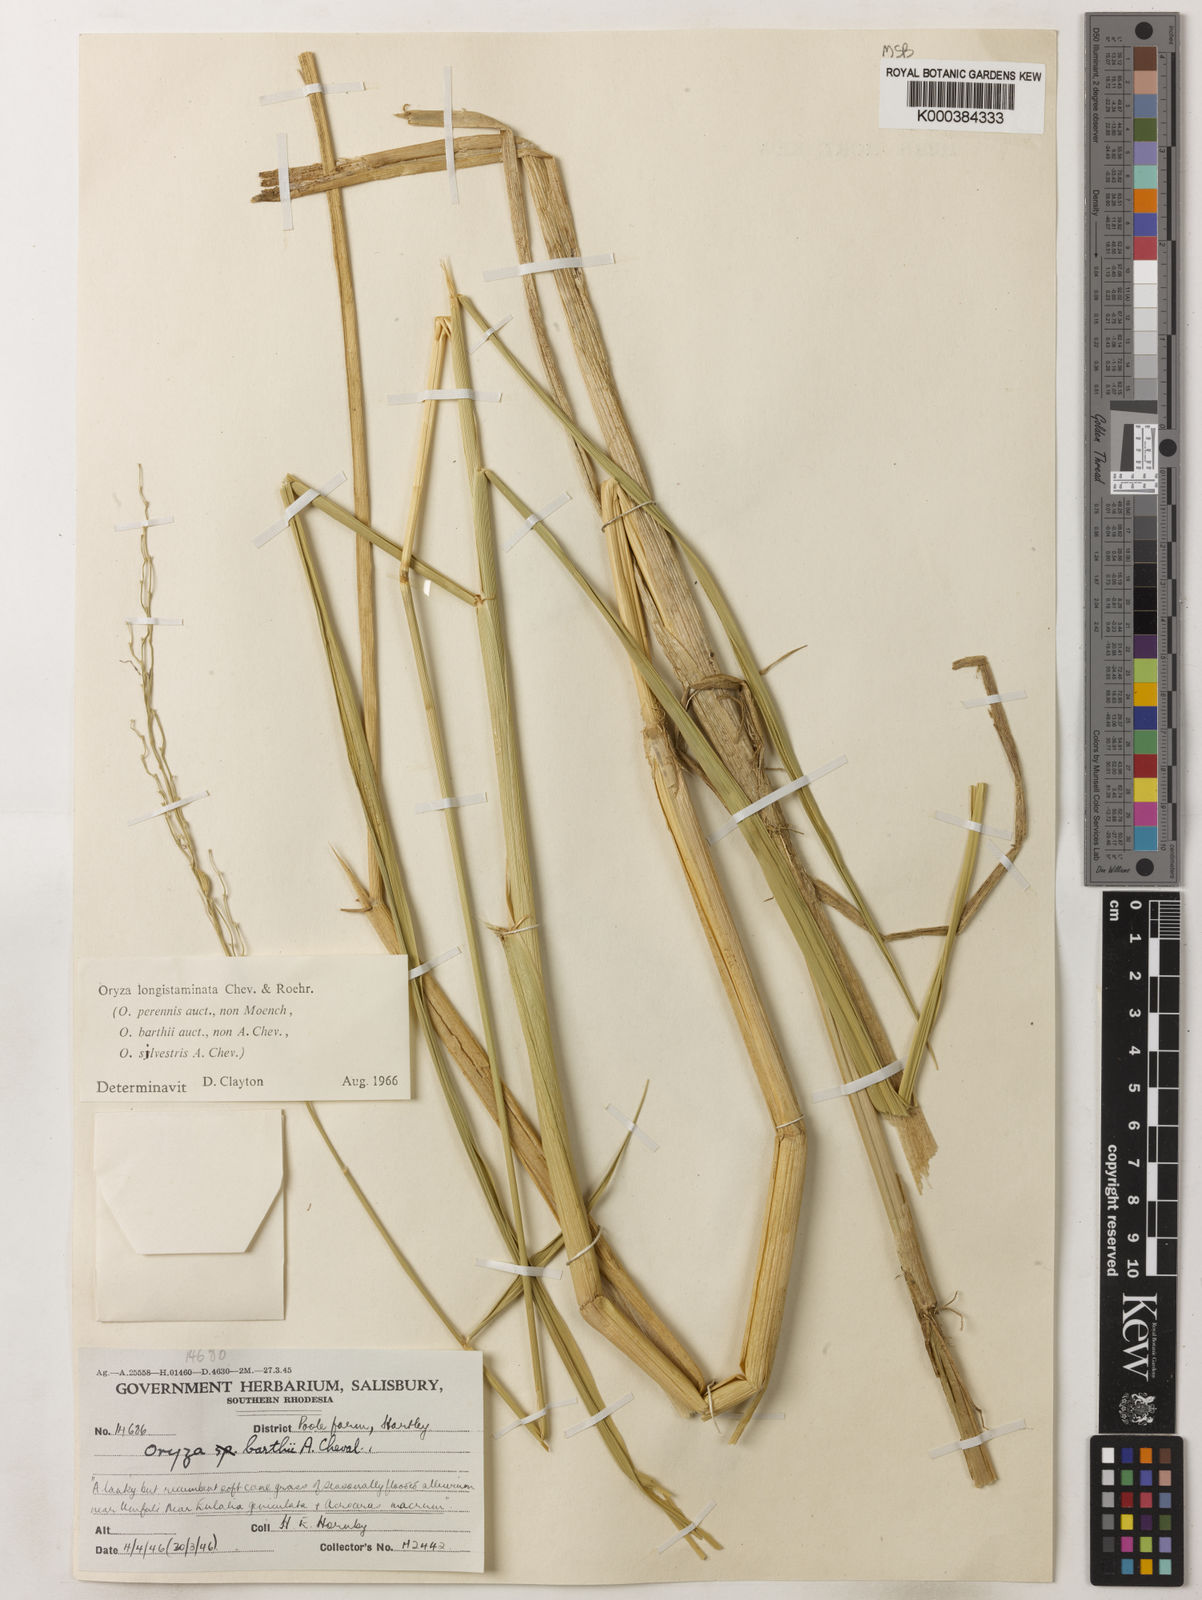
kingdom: Plantae
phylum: Tracheophyta
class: Liliopsida
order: Poales
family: Poaceae
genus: Oryza
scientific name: Oryza longistaminata
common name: Red rice
